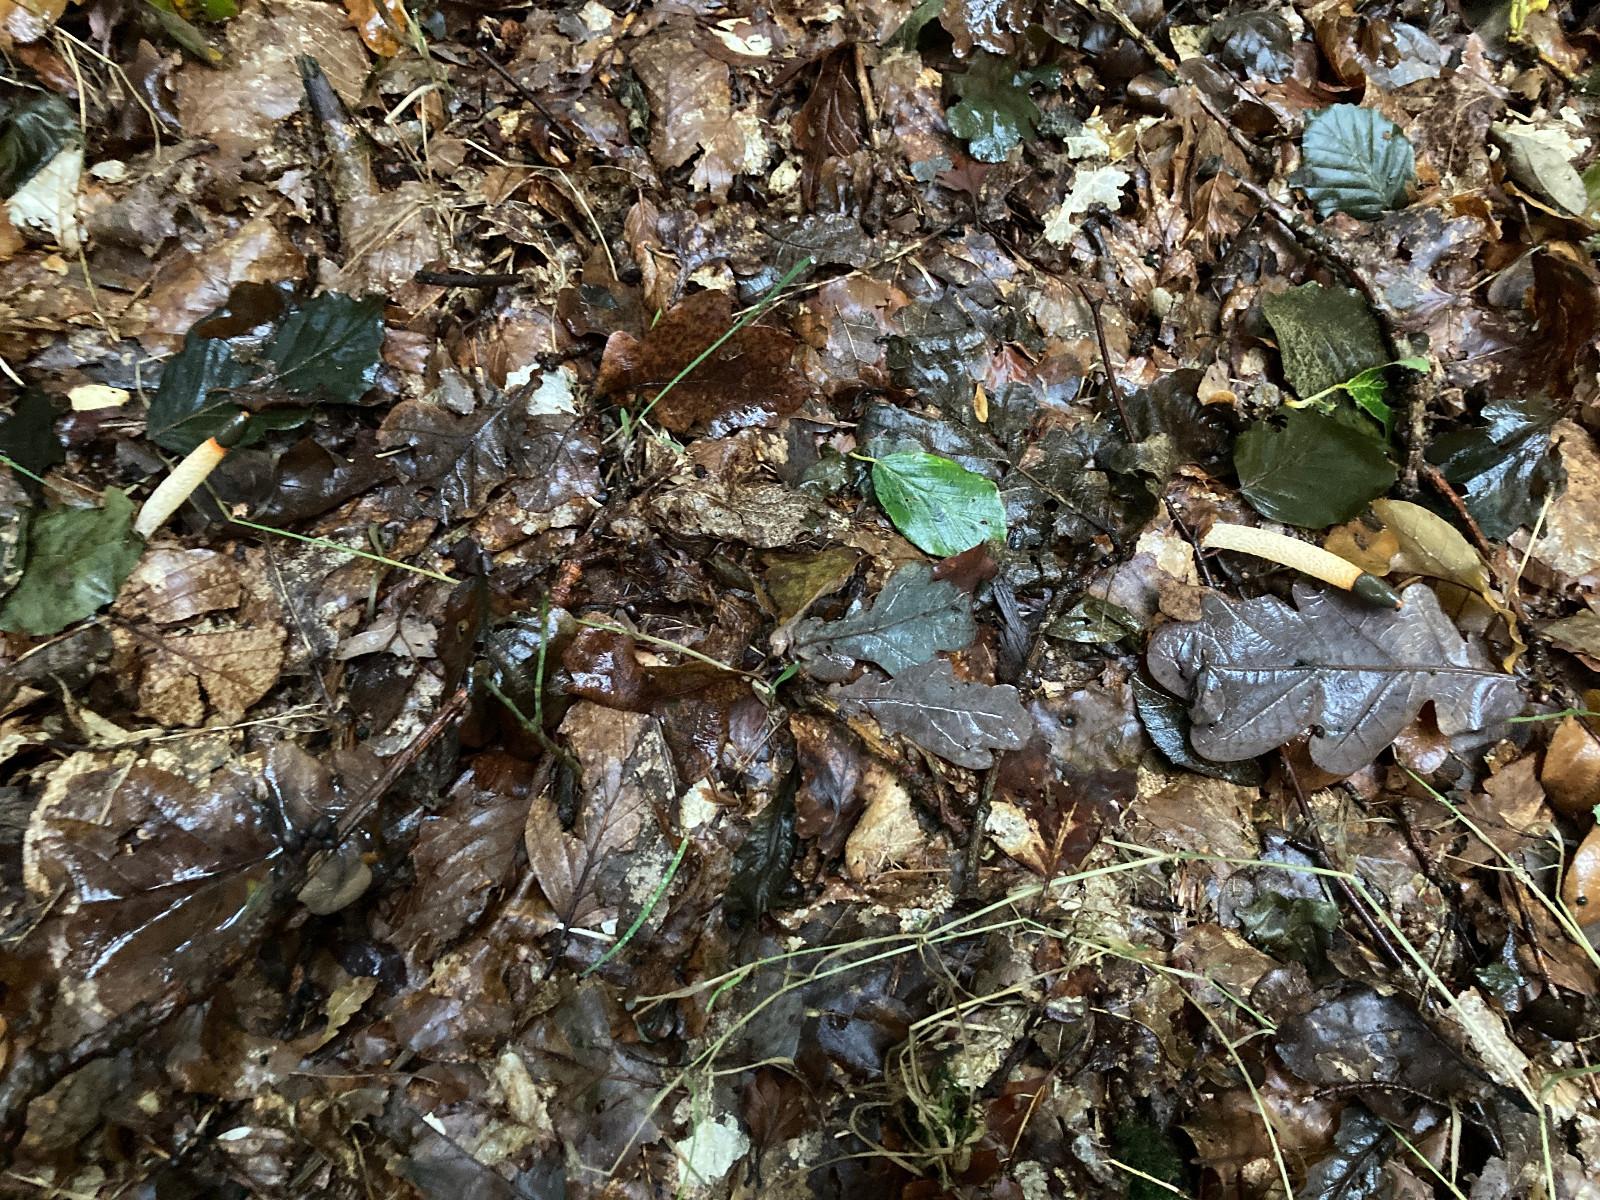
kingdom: Fungi
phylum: Basidiomycota
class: Agaricomycetes
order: Phallales
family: Phallaceae
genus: Mutinus
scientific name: Mutinus caninus
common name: hunde-stinksvamp
